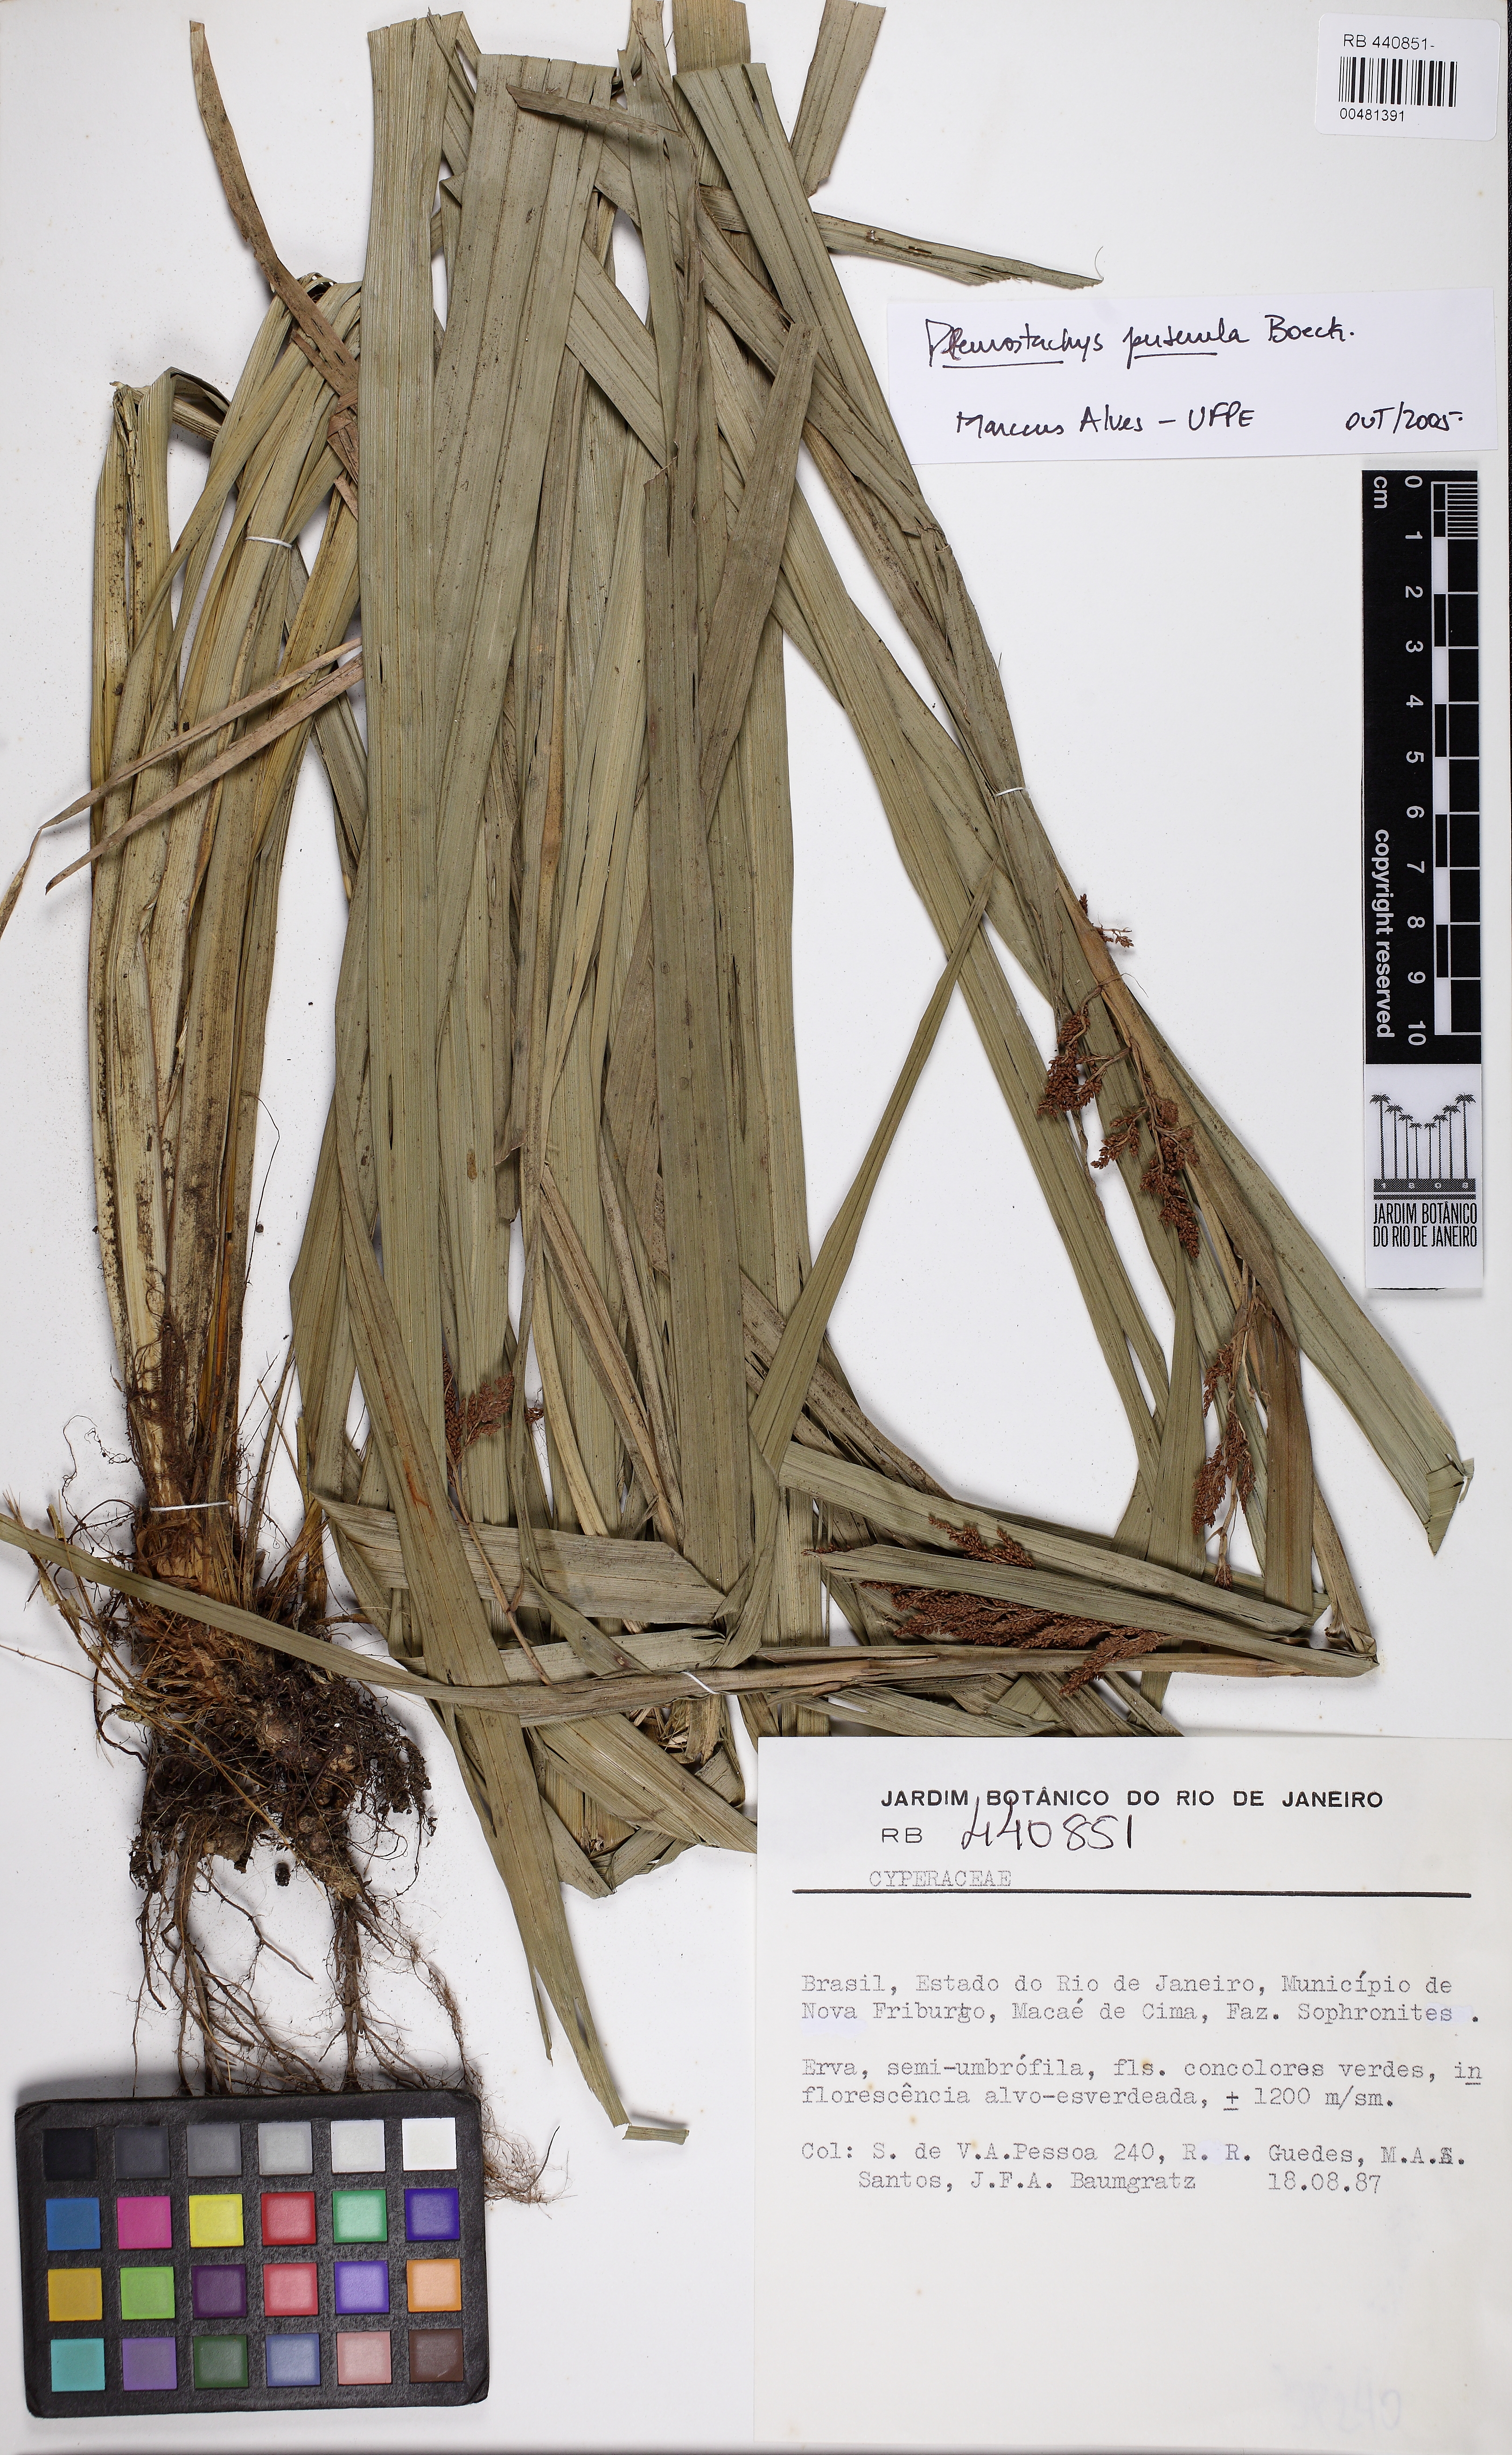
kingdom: Plantae
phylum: Tracheophyta
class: Liliopsida
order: Poales
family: Cyperaceae
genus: Rhynchospora
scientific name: Rhynchospora orbignyana
